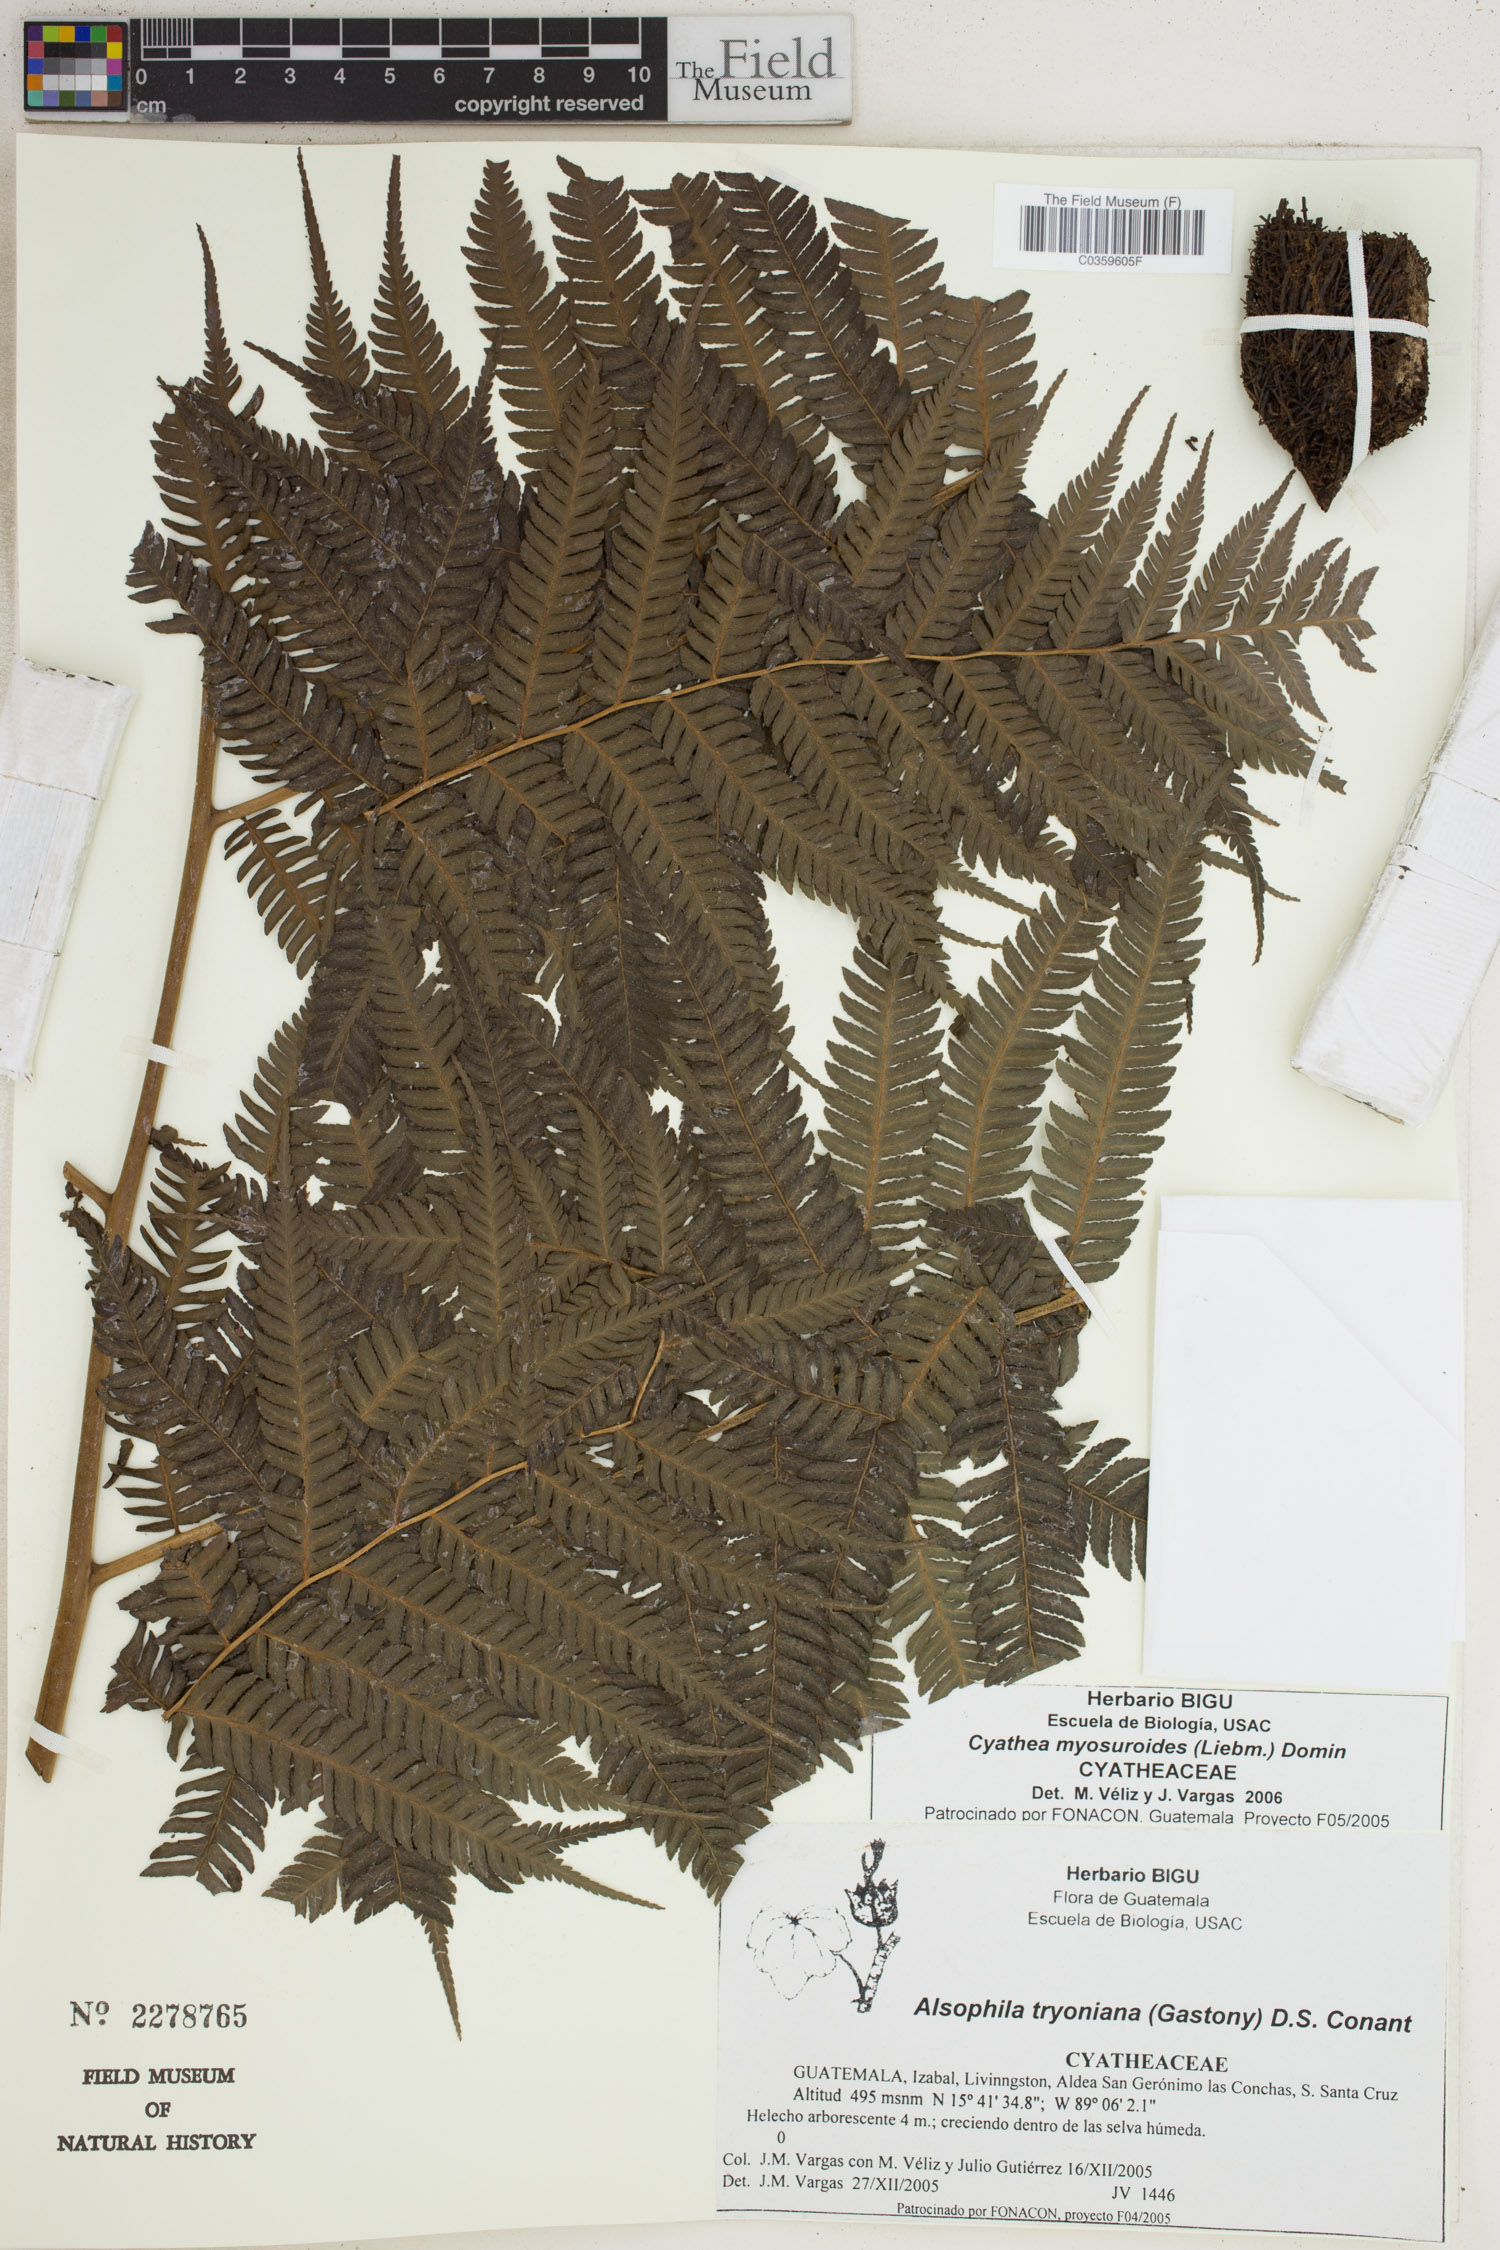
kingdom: Plantae
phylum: Tracheophyta
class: Polypodiopsida
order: Cyatheales
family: Cyatheaceae
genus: Sphaeropteris
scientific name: Sphaeropteris myosuroides
